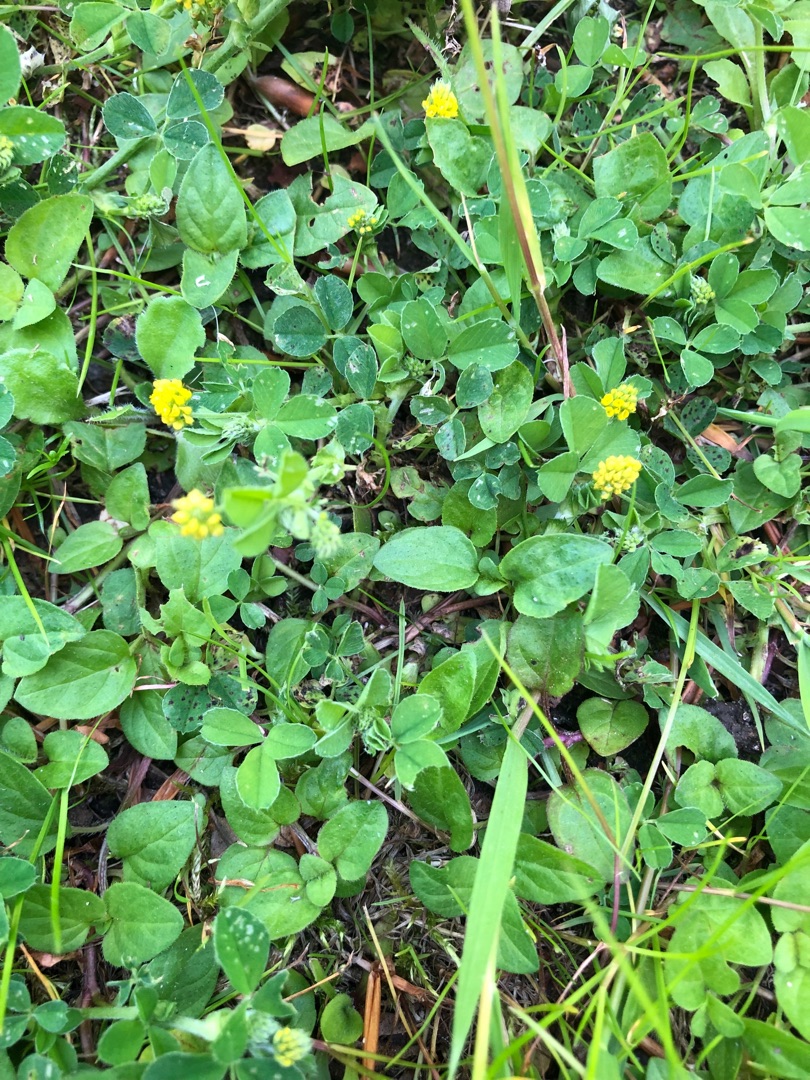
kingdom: Plantae
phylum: Tracheophyta
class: Magnoliopsida
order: Fabales
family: Fabaceae
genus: Medicago
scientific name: Medicago lupulina
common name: Humle-sneglebælg
